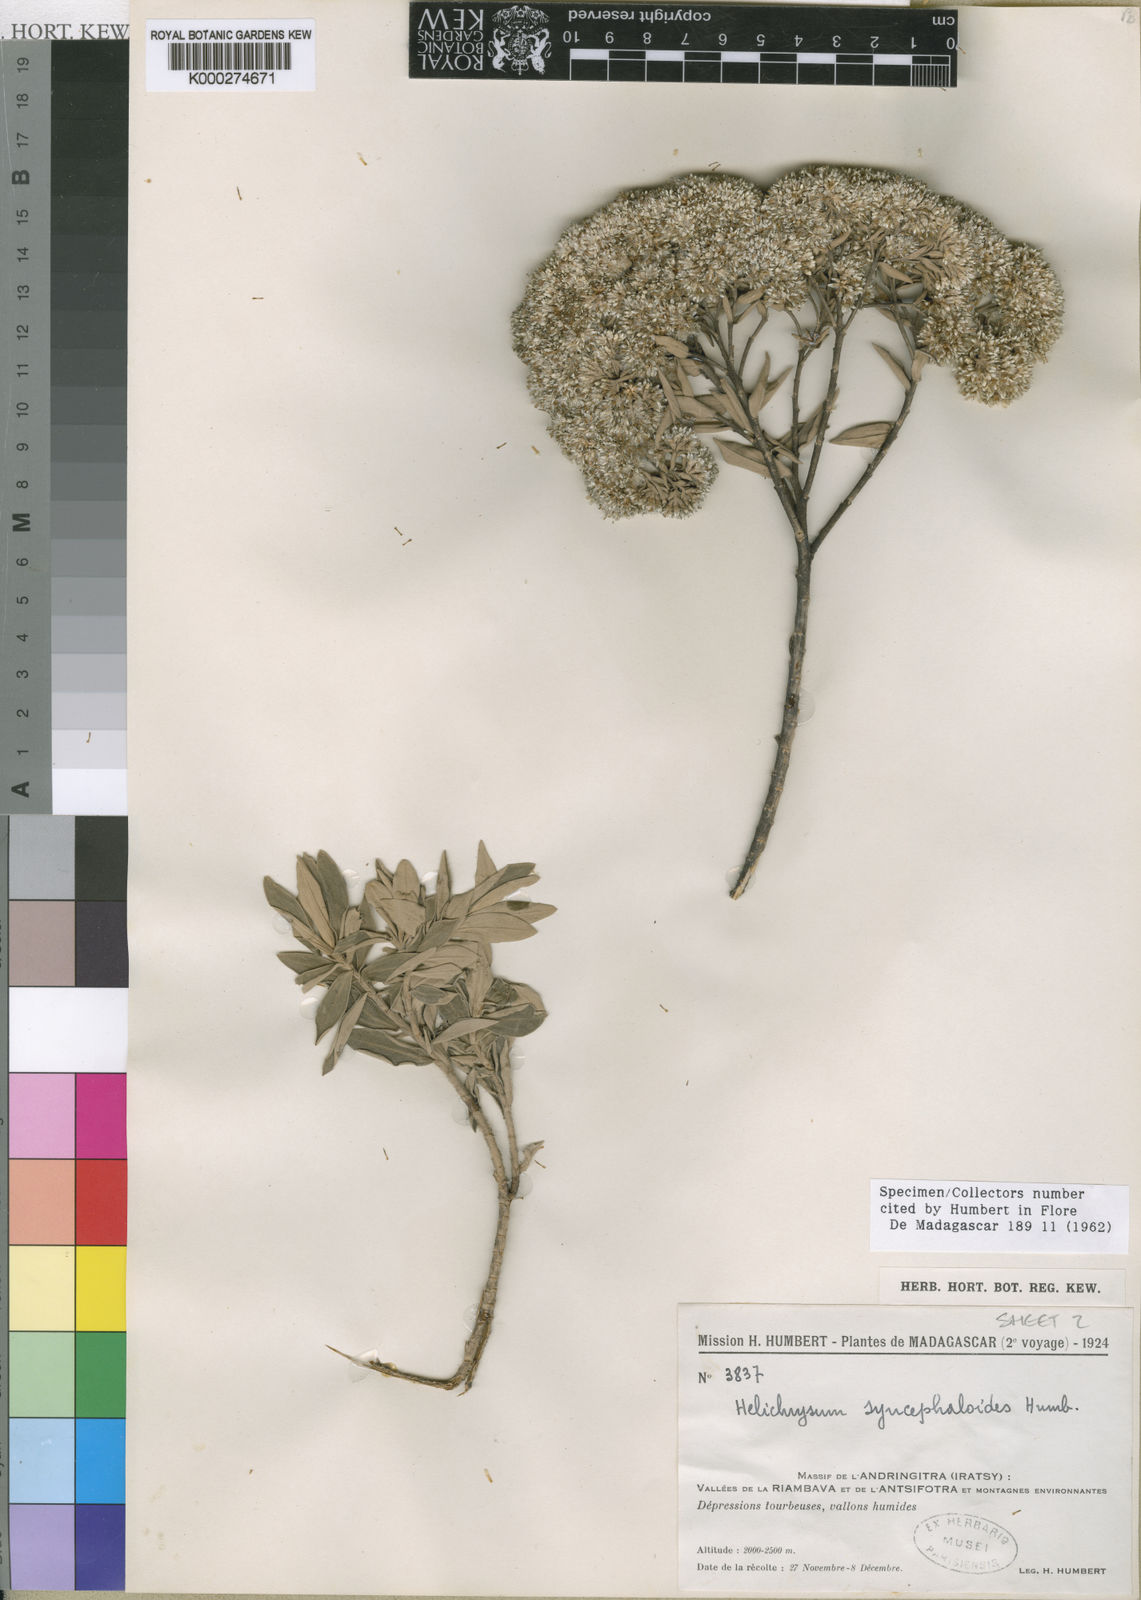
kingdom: Plantae
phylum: Tracheophyta
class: Magnoliopsida
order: Asterales
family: Asteraceae
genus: Helichrysum
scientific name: Helichrysum syncephaloides
